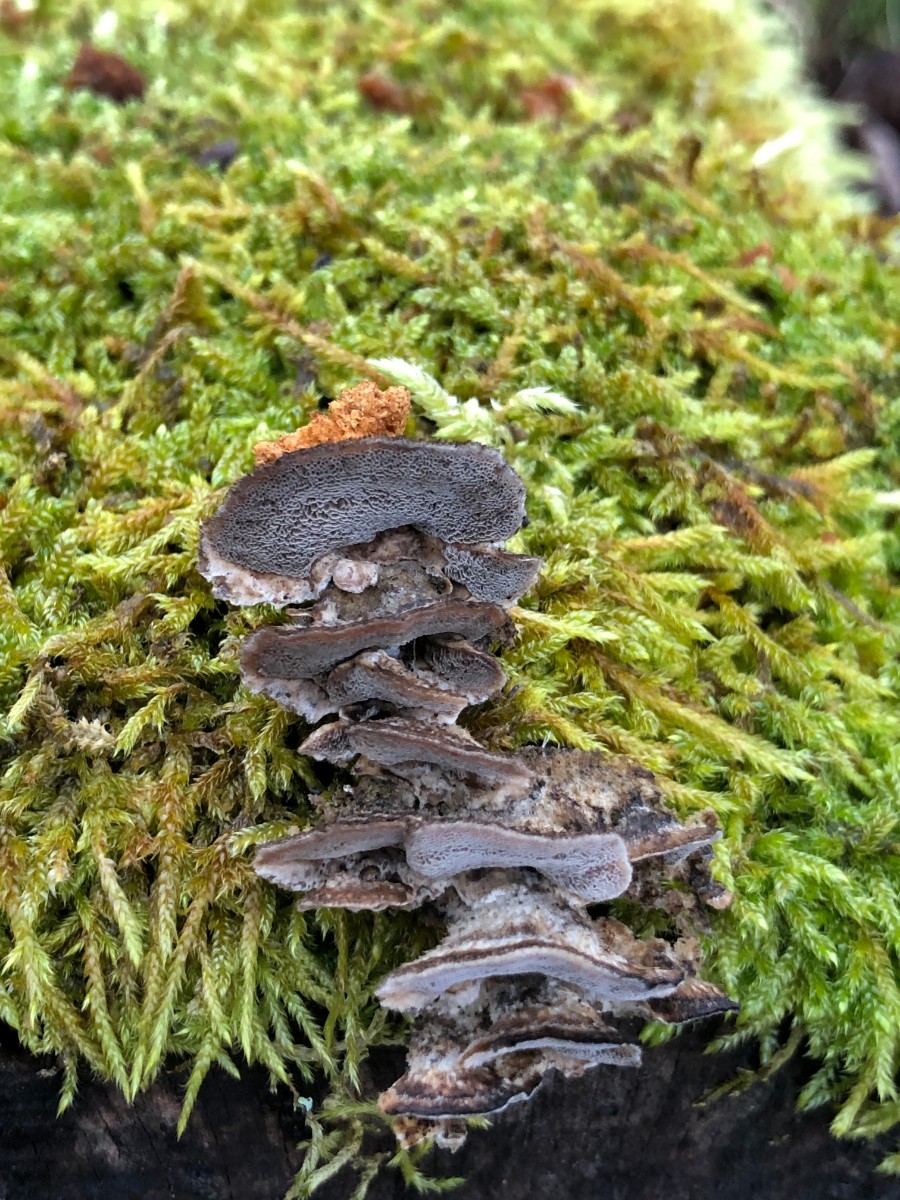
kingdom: Fungi
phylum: Basidiomycota
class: Agaricomycetes
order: Polyporales
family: Phanerochaetaceae
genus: Bjerkandera
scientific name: Bjerkandera adusta
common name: sveden sodporesvamp
